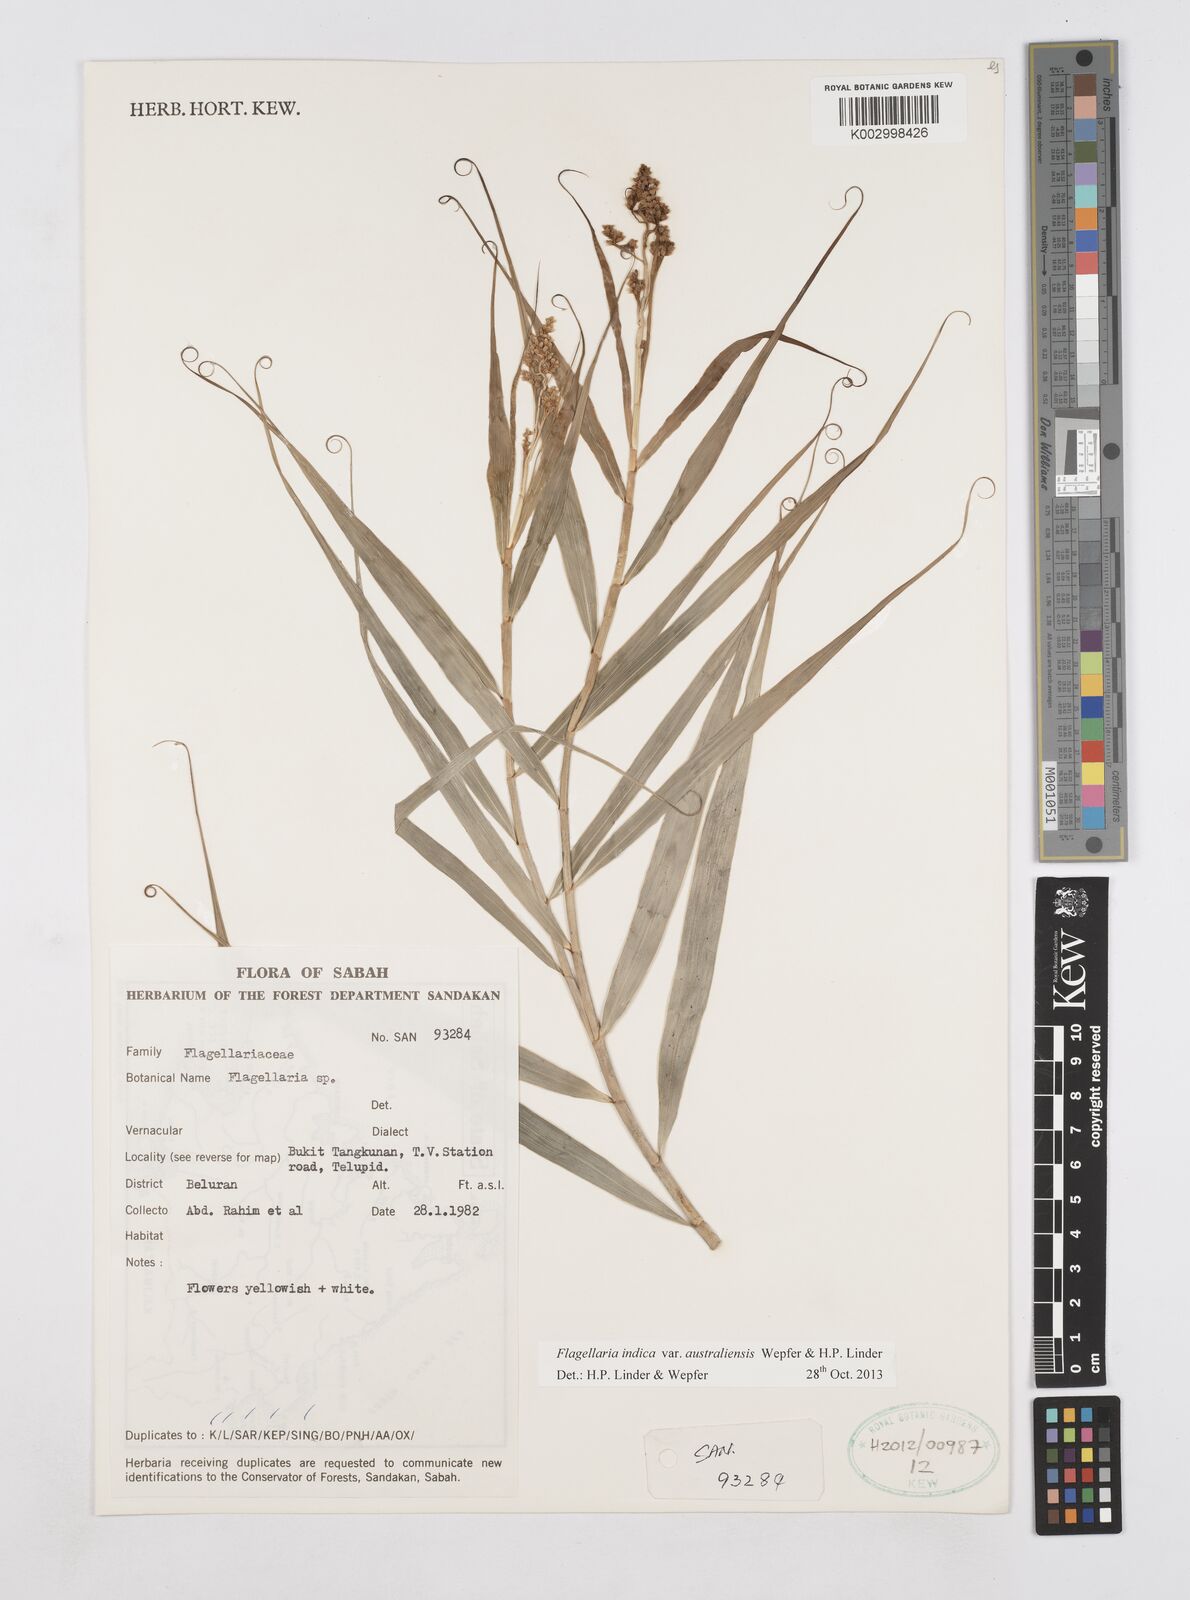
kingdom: Plantae
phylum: Tracheophyta
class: Liliopsida
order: Poales
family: Flagellariaceae
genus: Flagellaria
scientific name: Flagellaria indica
